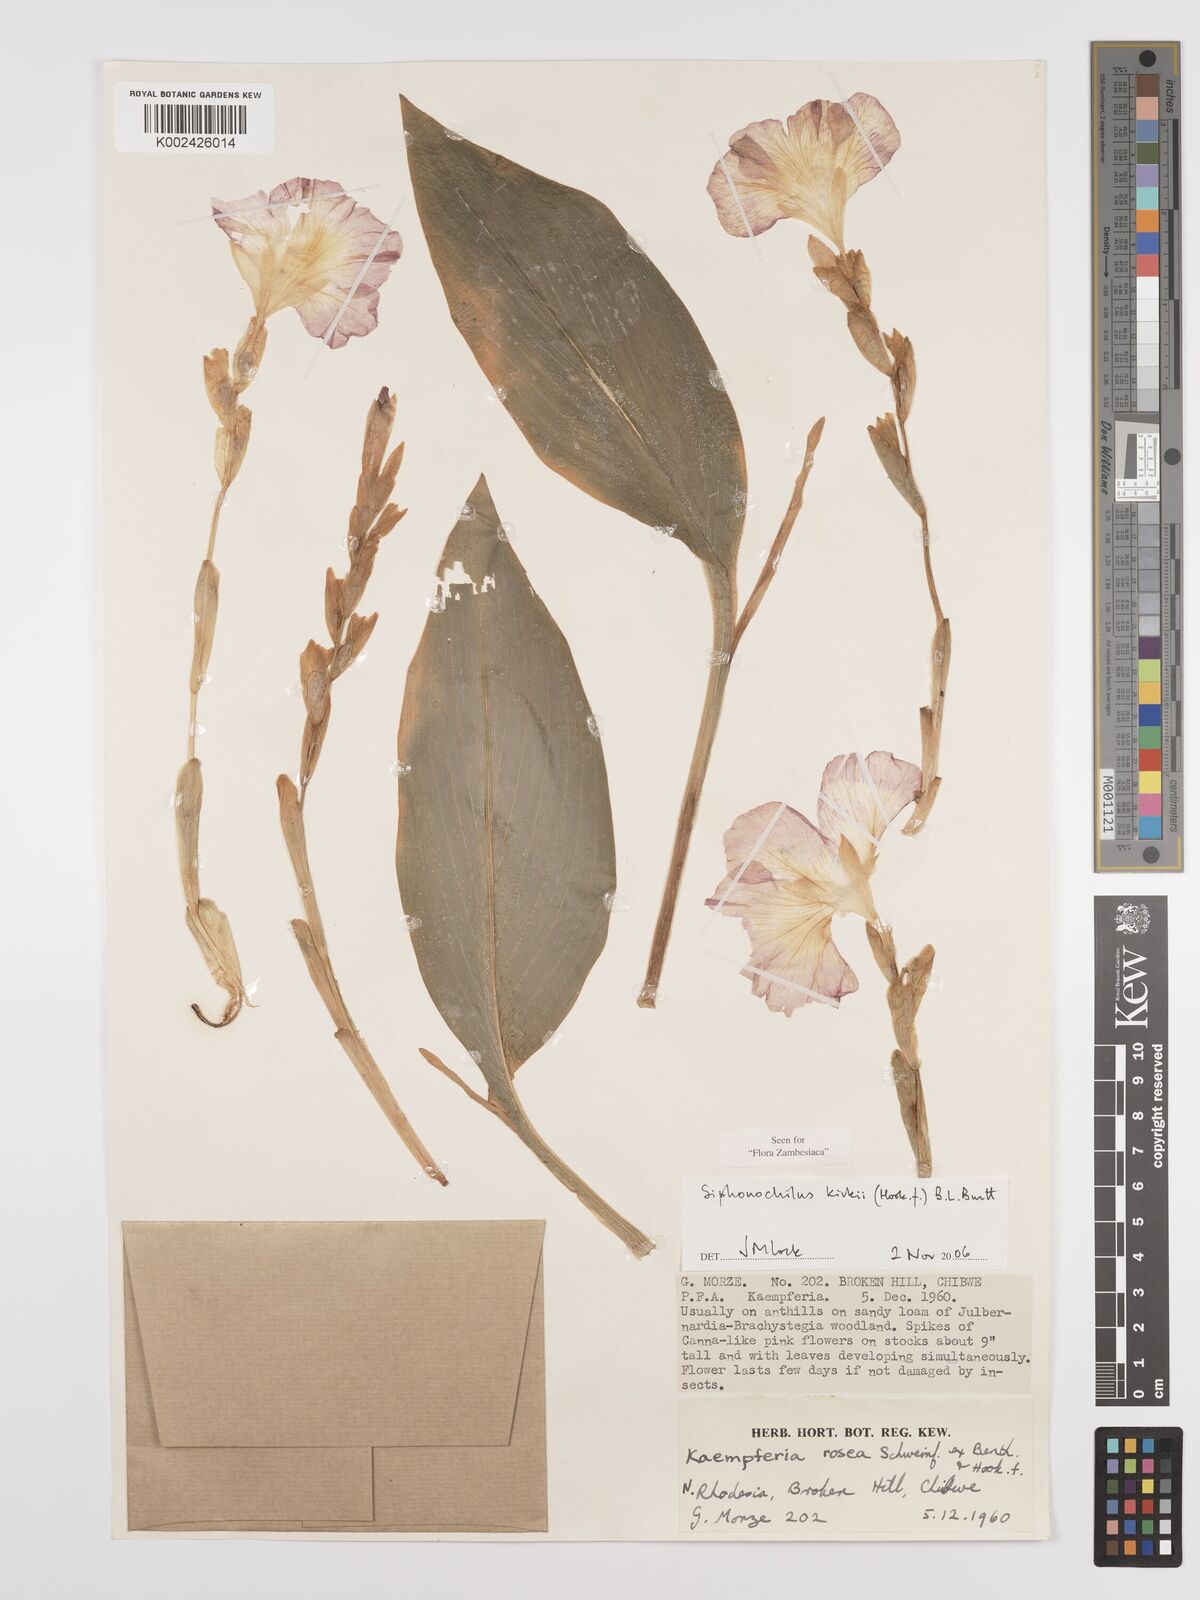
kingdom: Plantae
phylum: Tracheophyta
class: Liliopsida
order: Zingiberales
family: Zingiberaceae
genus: Siphonochilus
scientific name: Siphonochilus kirkii
